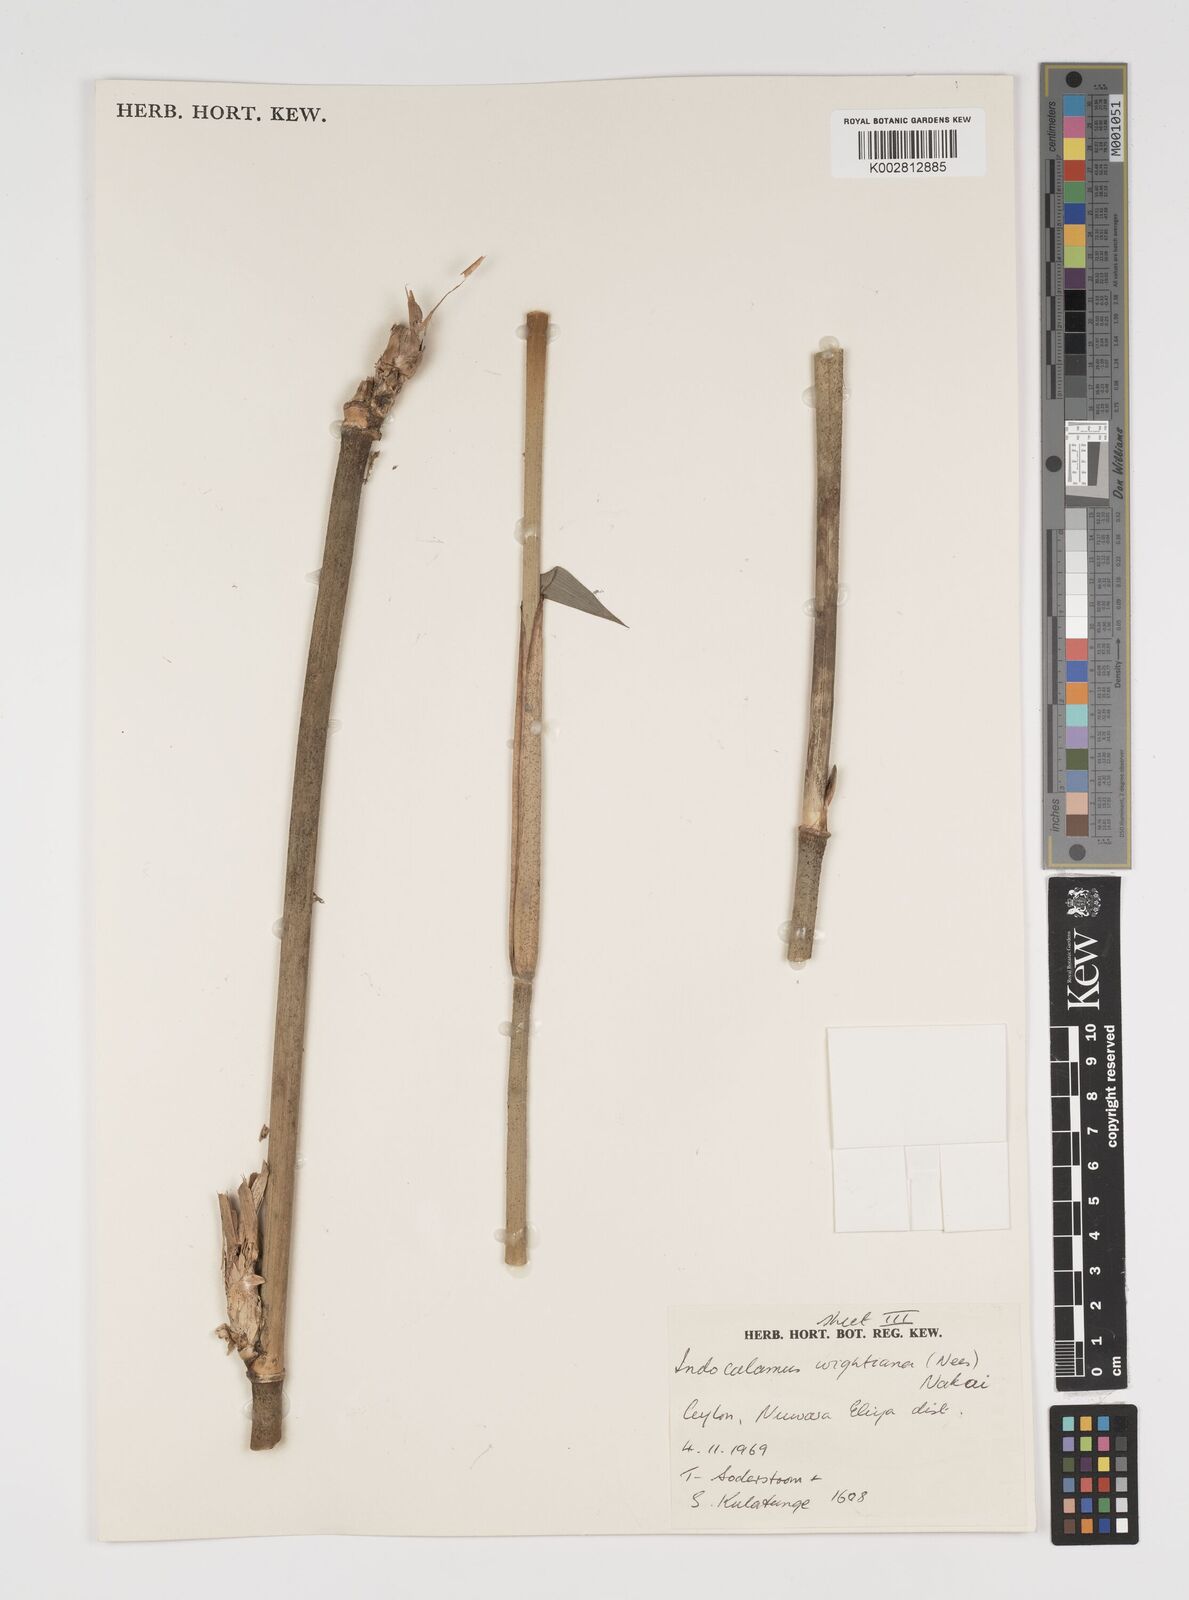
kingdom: Plantae
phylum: Tracheophyta
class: Liliopsida
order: Poales
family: Poaceae
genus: Kuruna
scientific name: Kuruna scandens
